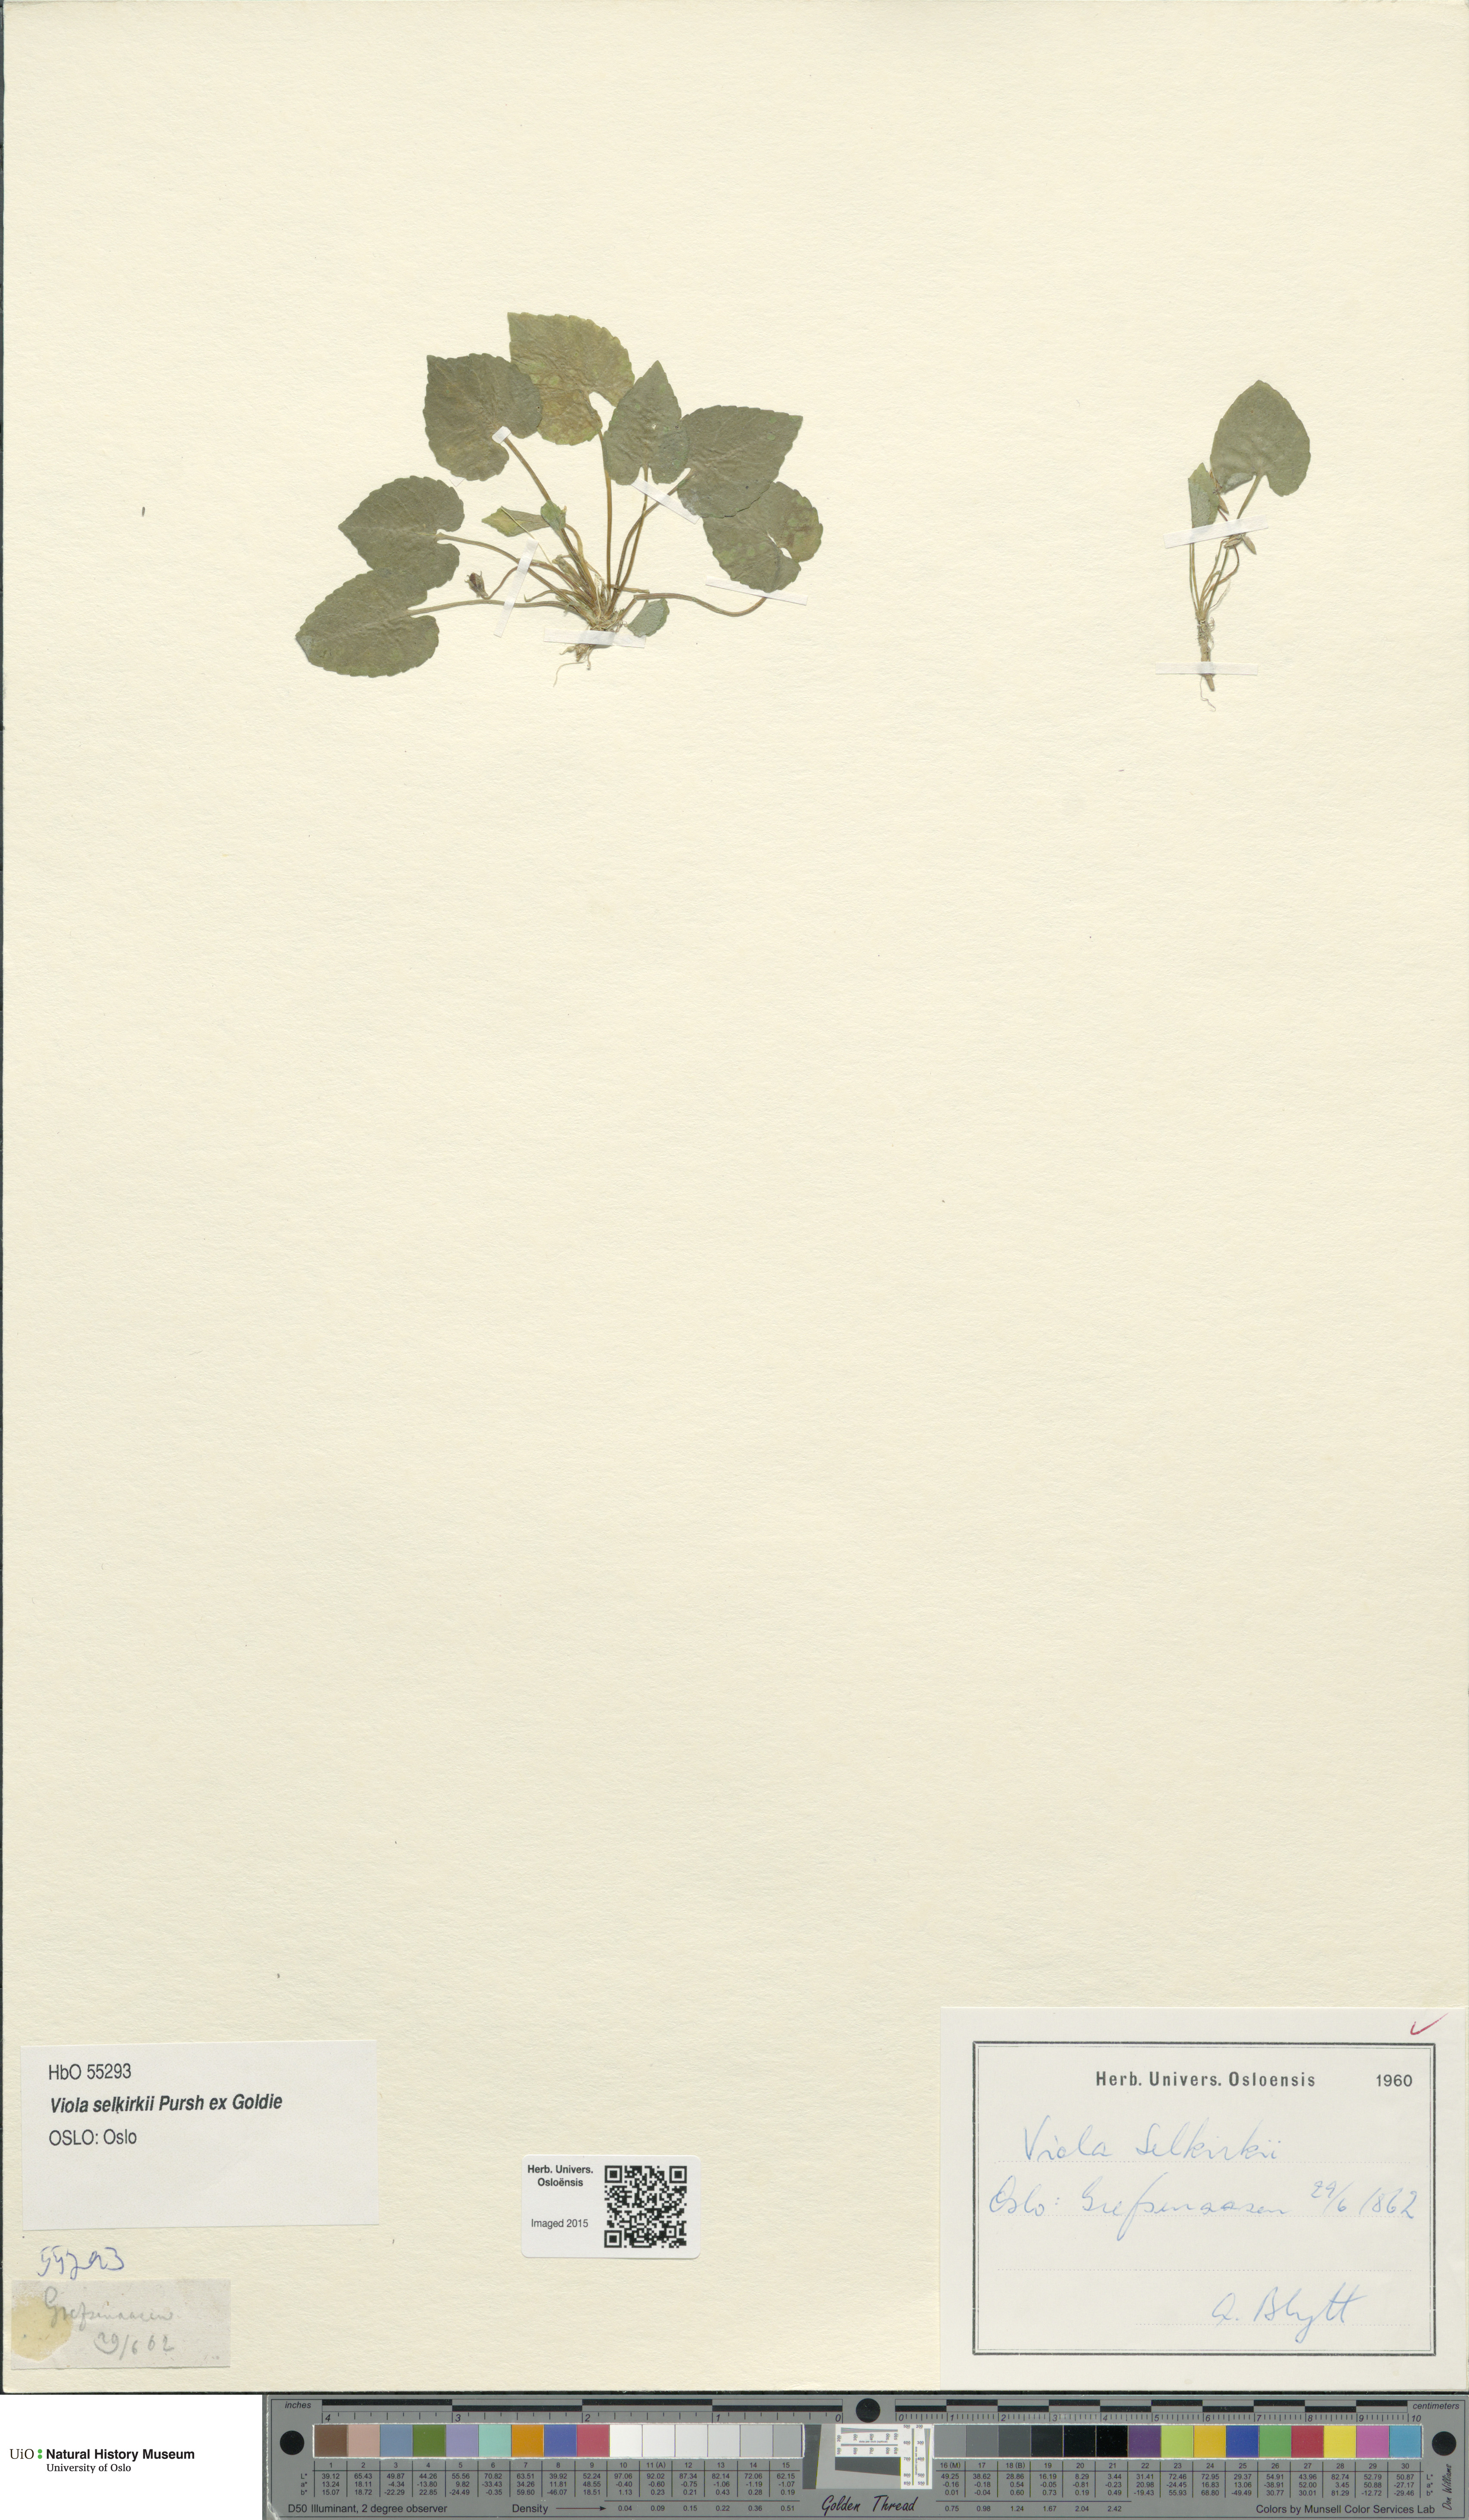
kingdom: Plantae
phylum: Tracheophyta
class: Magnoliopsida
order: Malpighiales
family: Violaceae
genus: Viola
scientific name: Viola selkirkii
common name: Selkirk's violet
